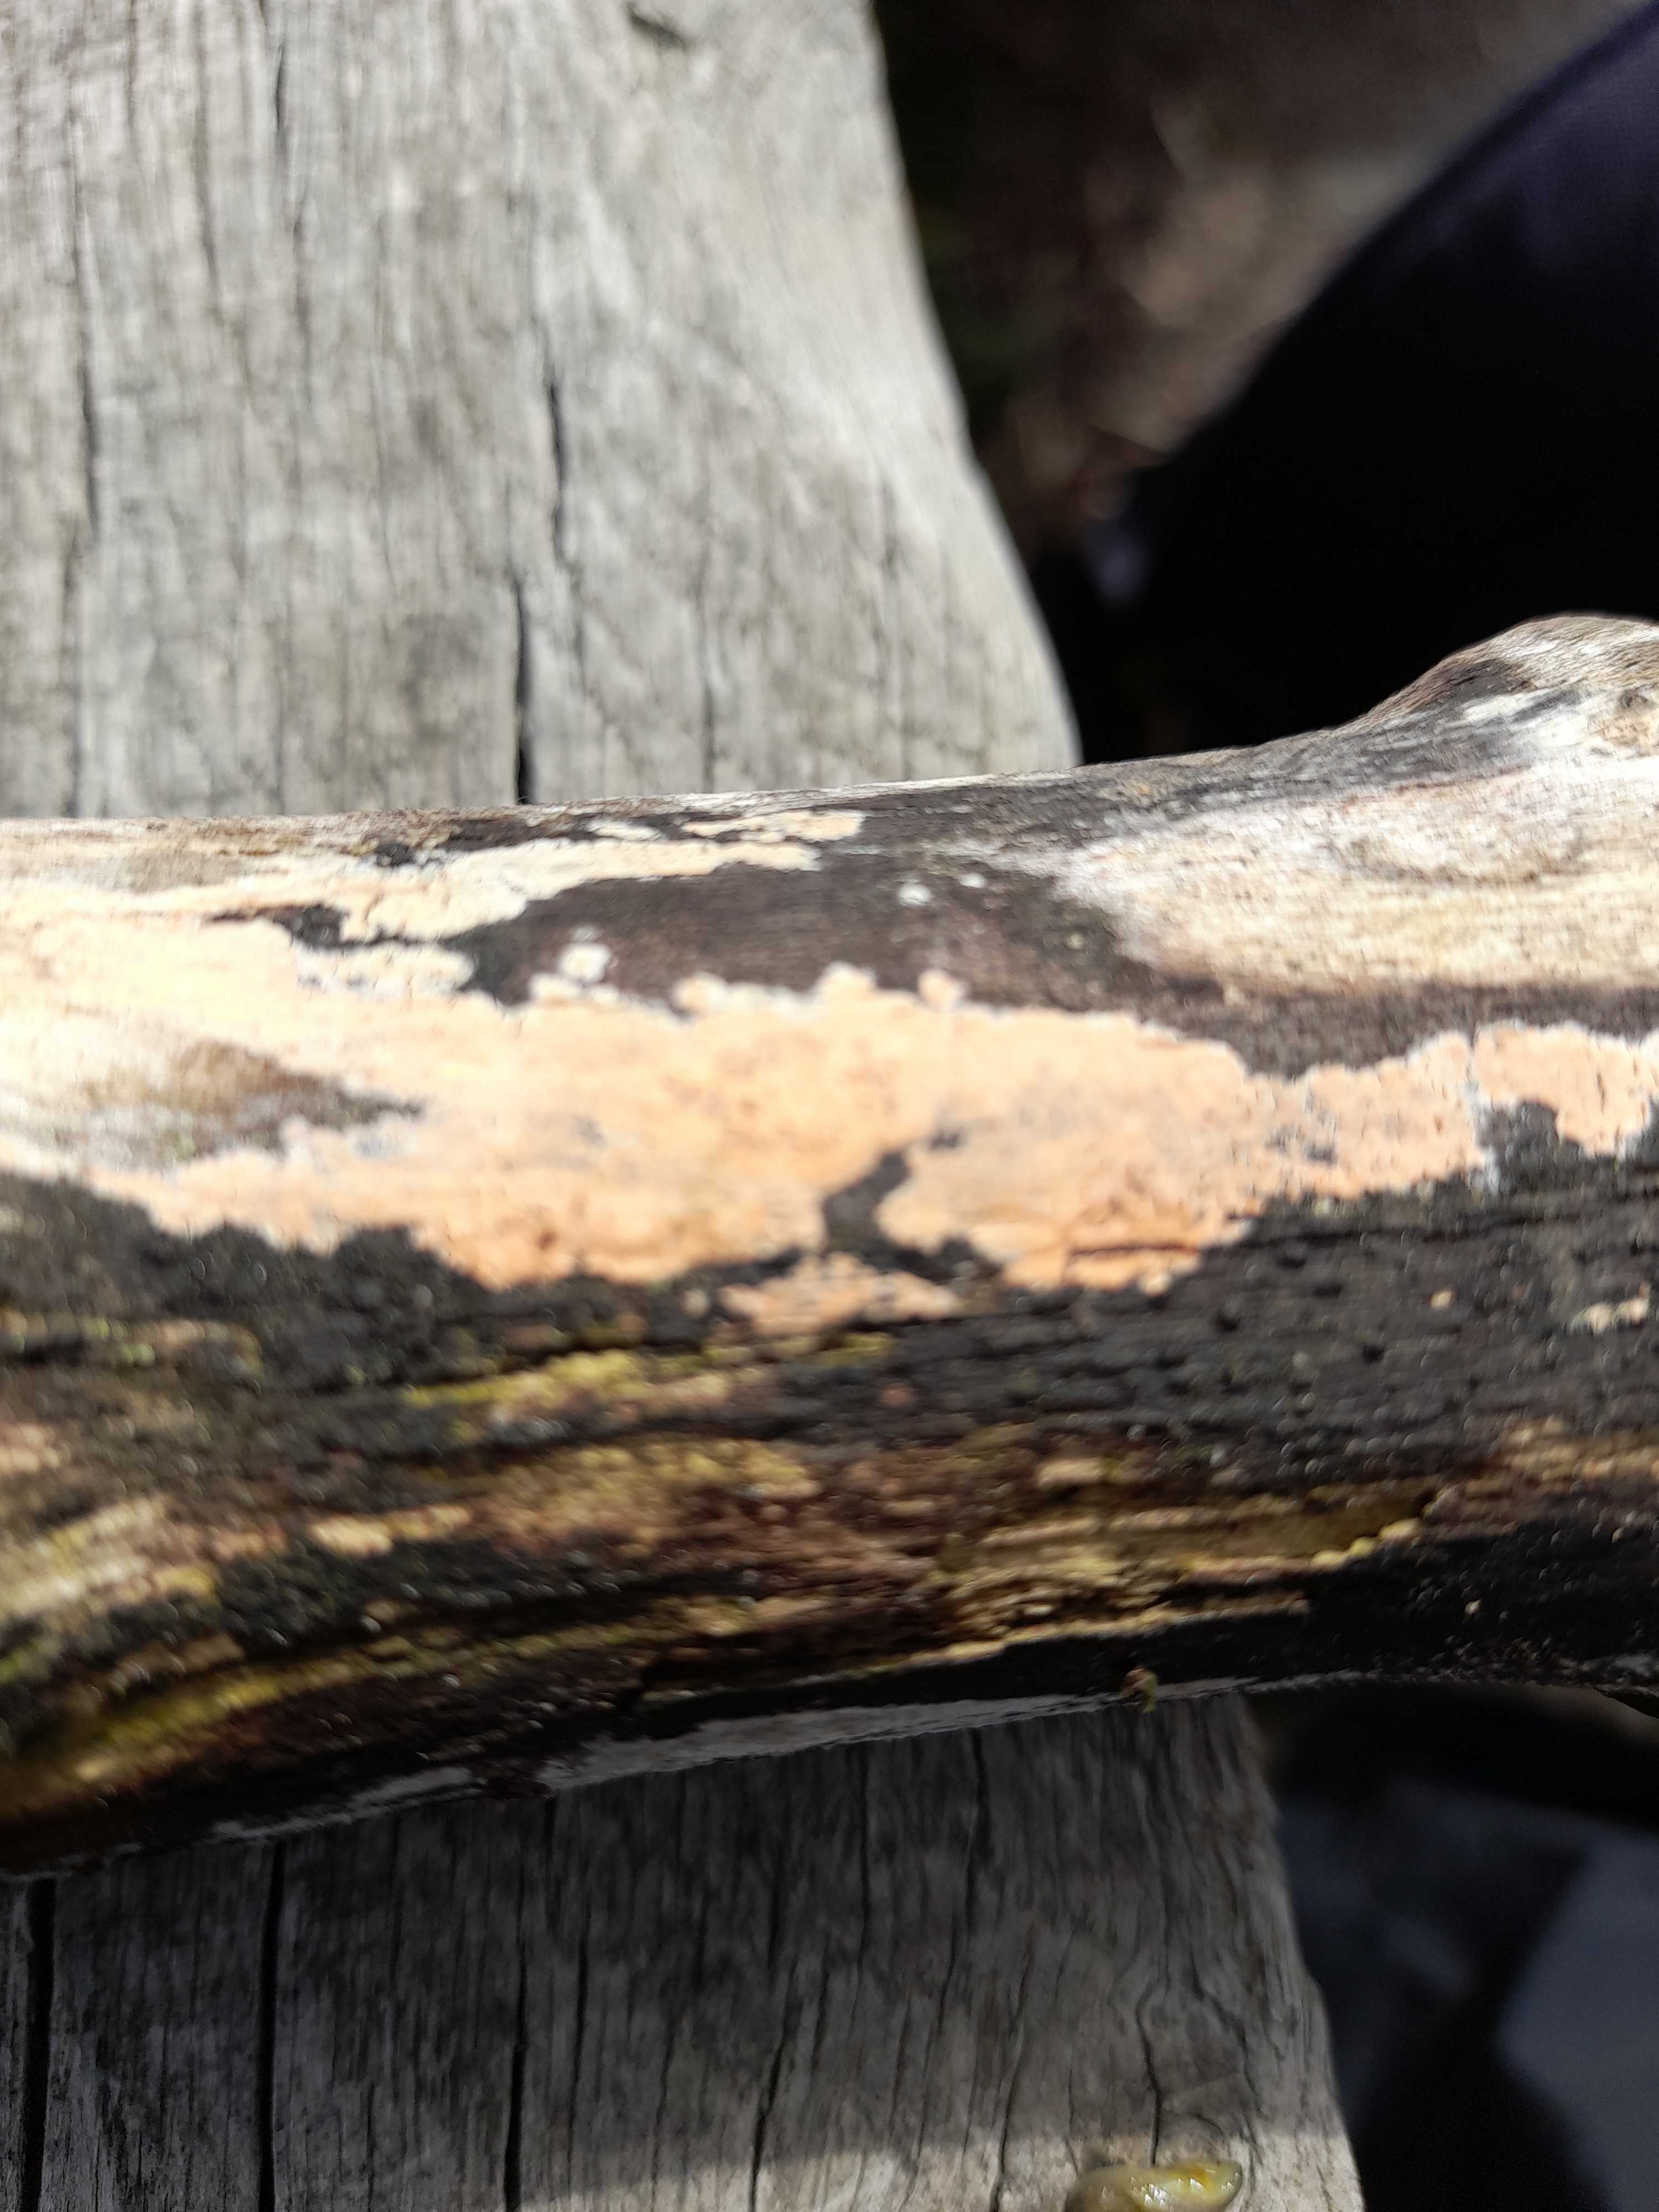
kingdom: Fungi
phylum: Basidiomycota
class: Agaricomycetes
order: Russulales
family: Peniophoraceae
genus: Peniophora
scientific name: Peniophora incarnata
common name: laksefarvet voksskind
